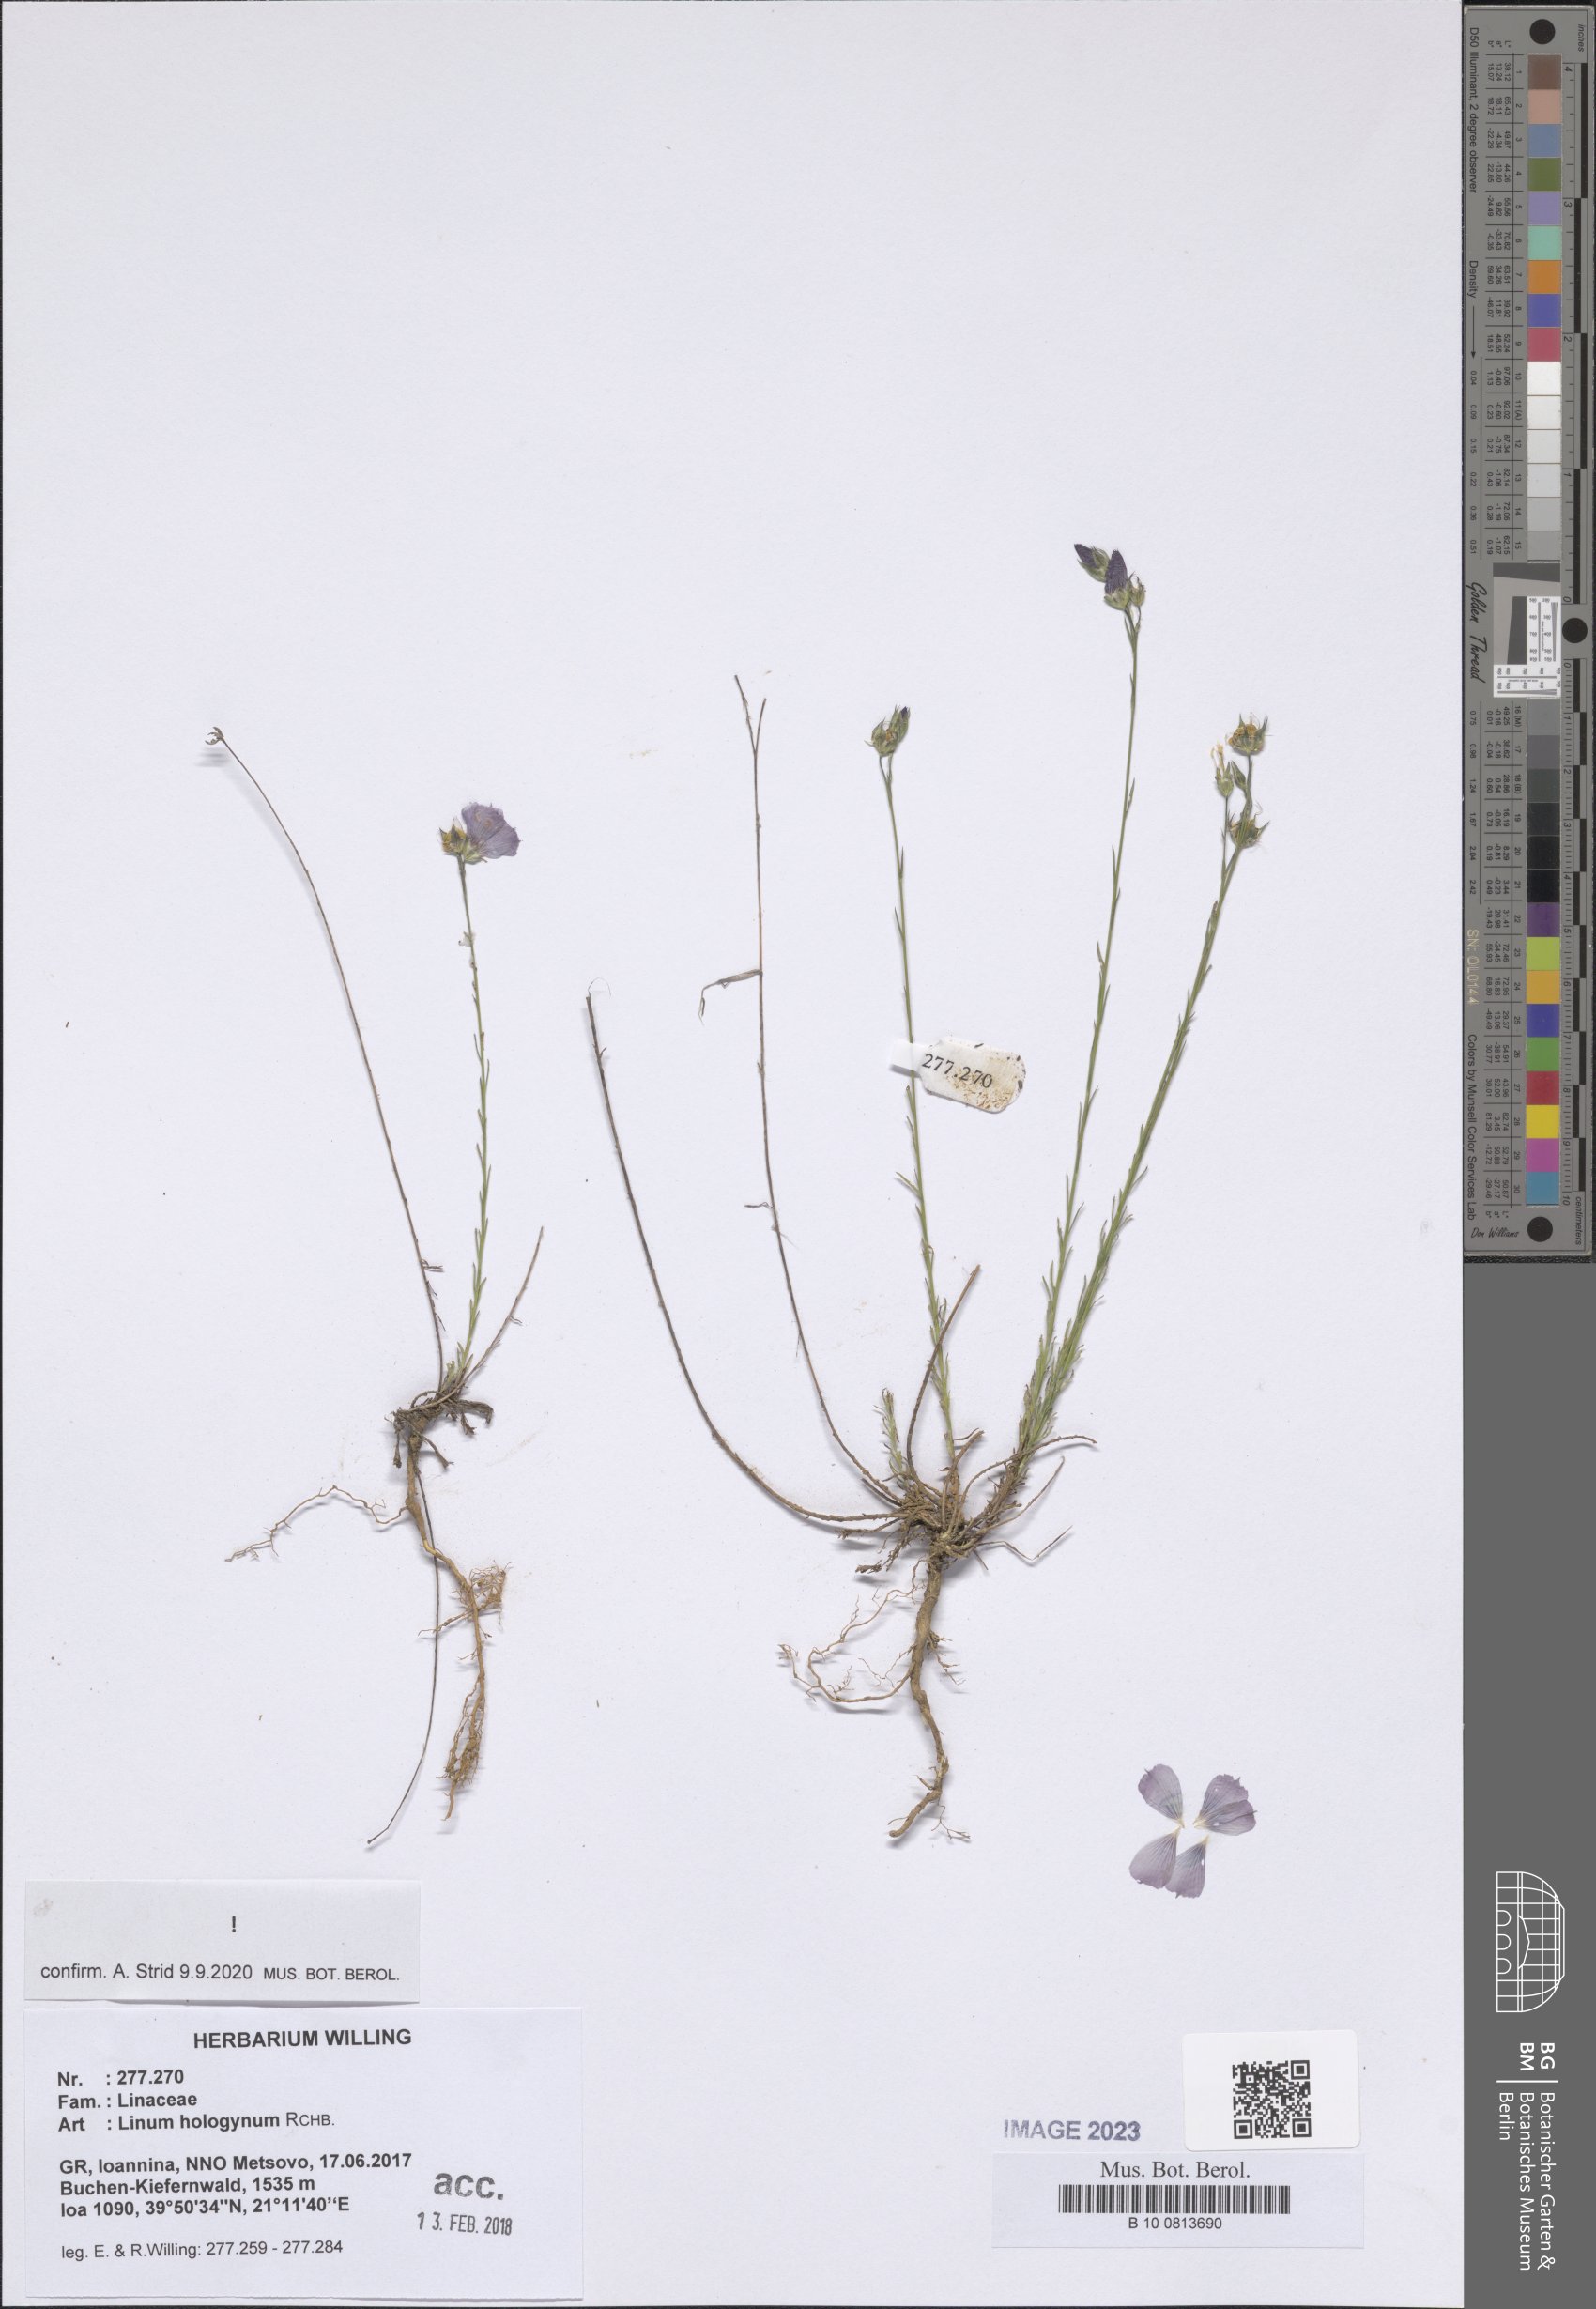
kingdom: Plantae
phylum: Tracheophyta
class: Magnoliopsida
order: Malpighiales
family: Linaceae
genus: Linum
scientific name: Linum hologynum
